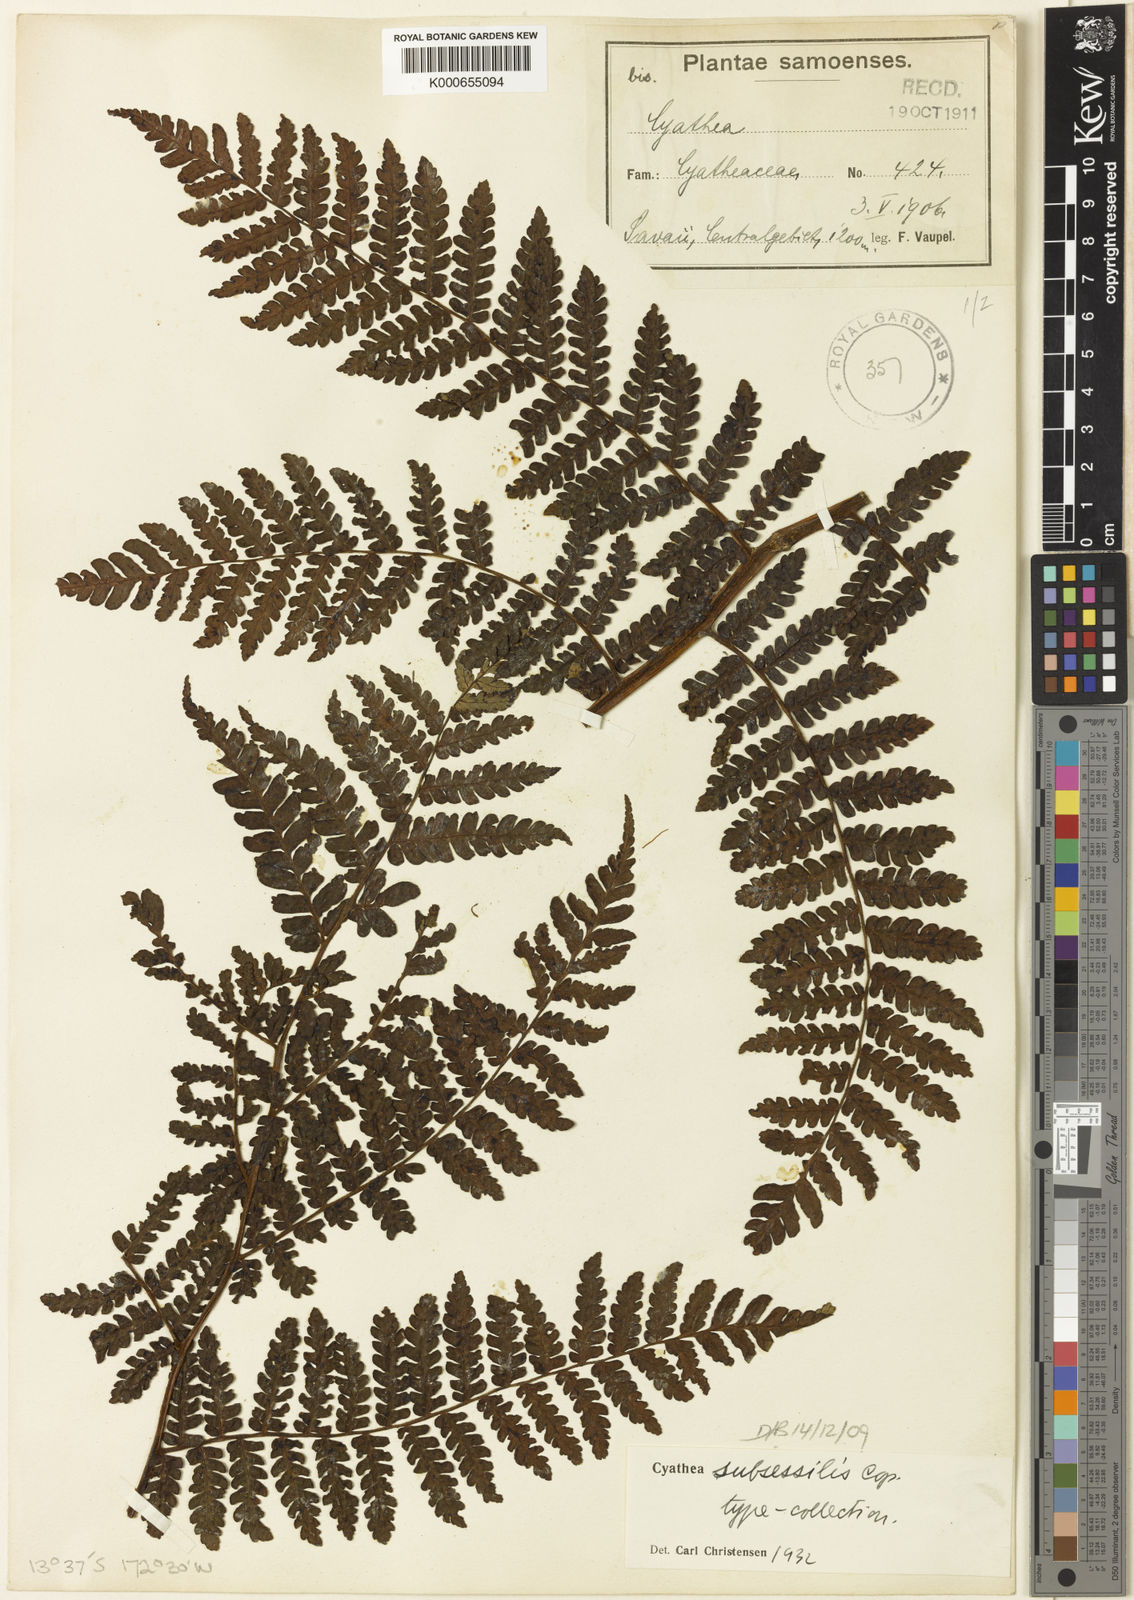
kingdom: Plantae
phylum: Tracheophyta
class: Polypodiopsida
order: Cyatheales
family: Cyatheaceae
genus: Sphaeropteris
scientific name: Sphaeropteris subsessilis
